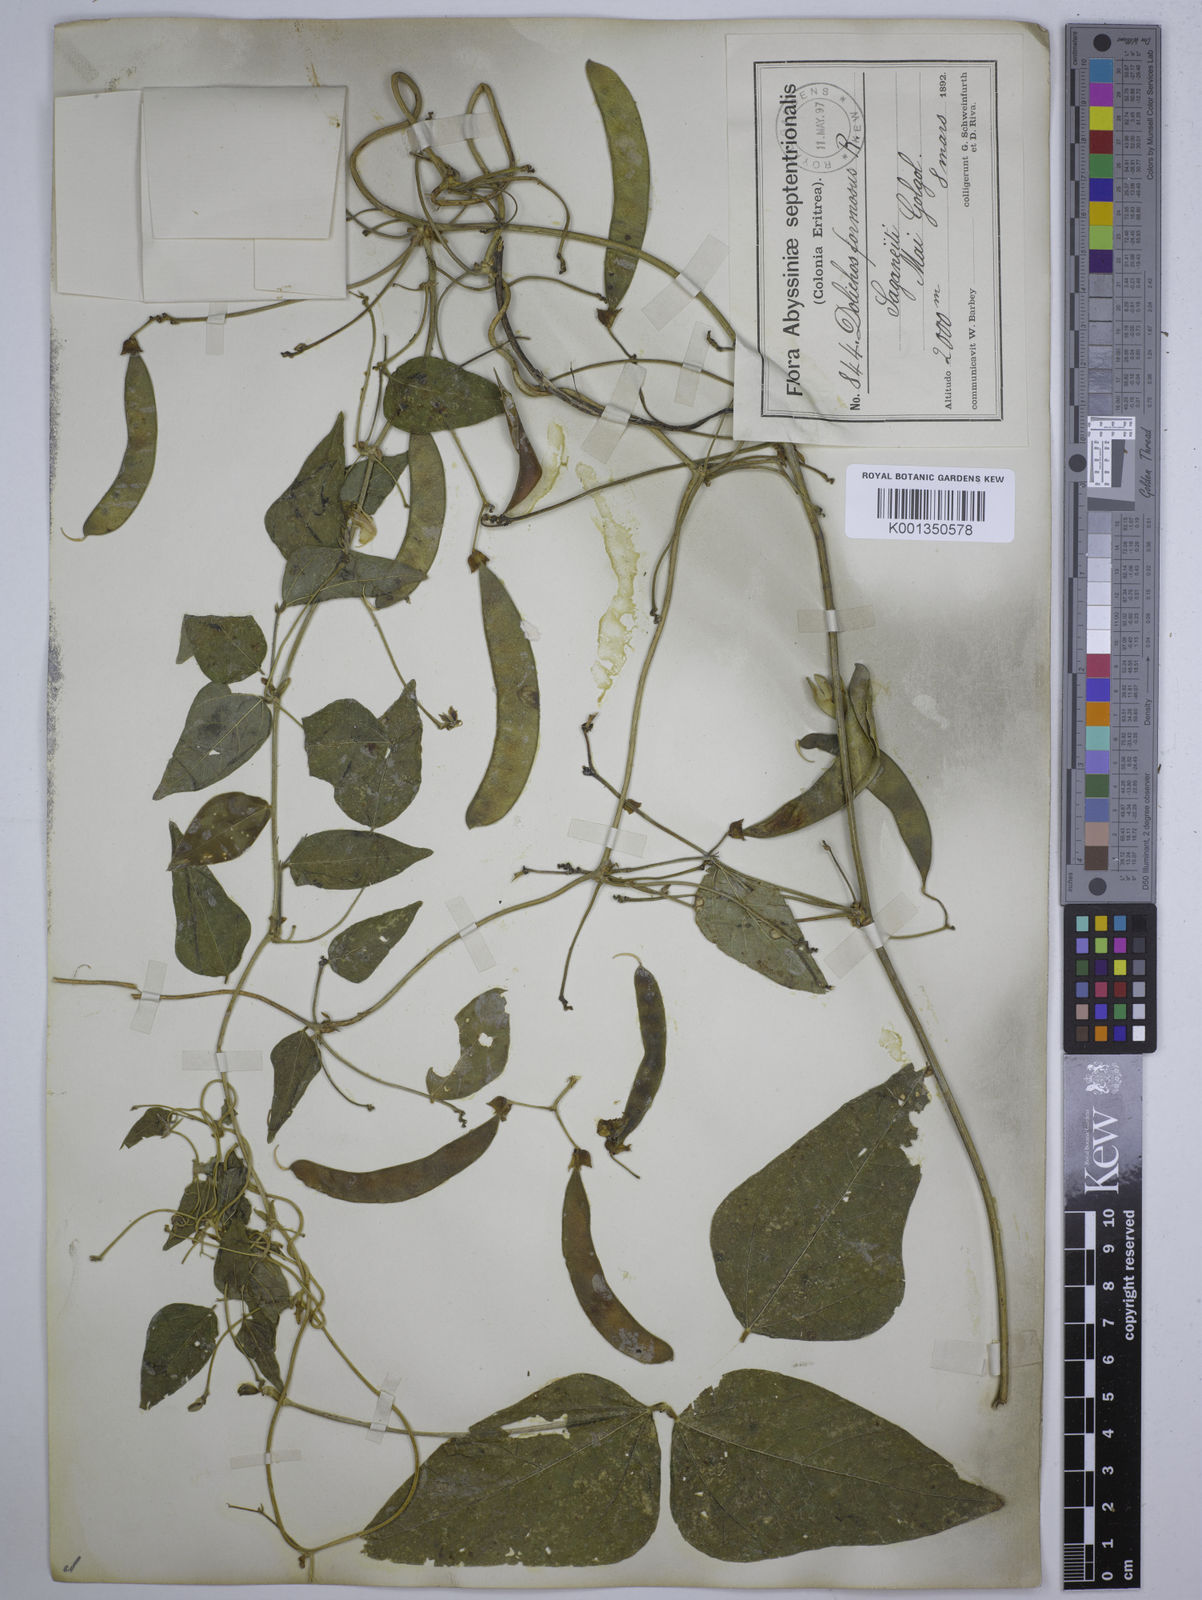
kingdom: Plantae
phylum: Tracheophyta
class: Magnoliopsida
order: Fabales
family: Fabaceae
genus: Dolichos
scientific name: Dolichos
